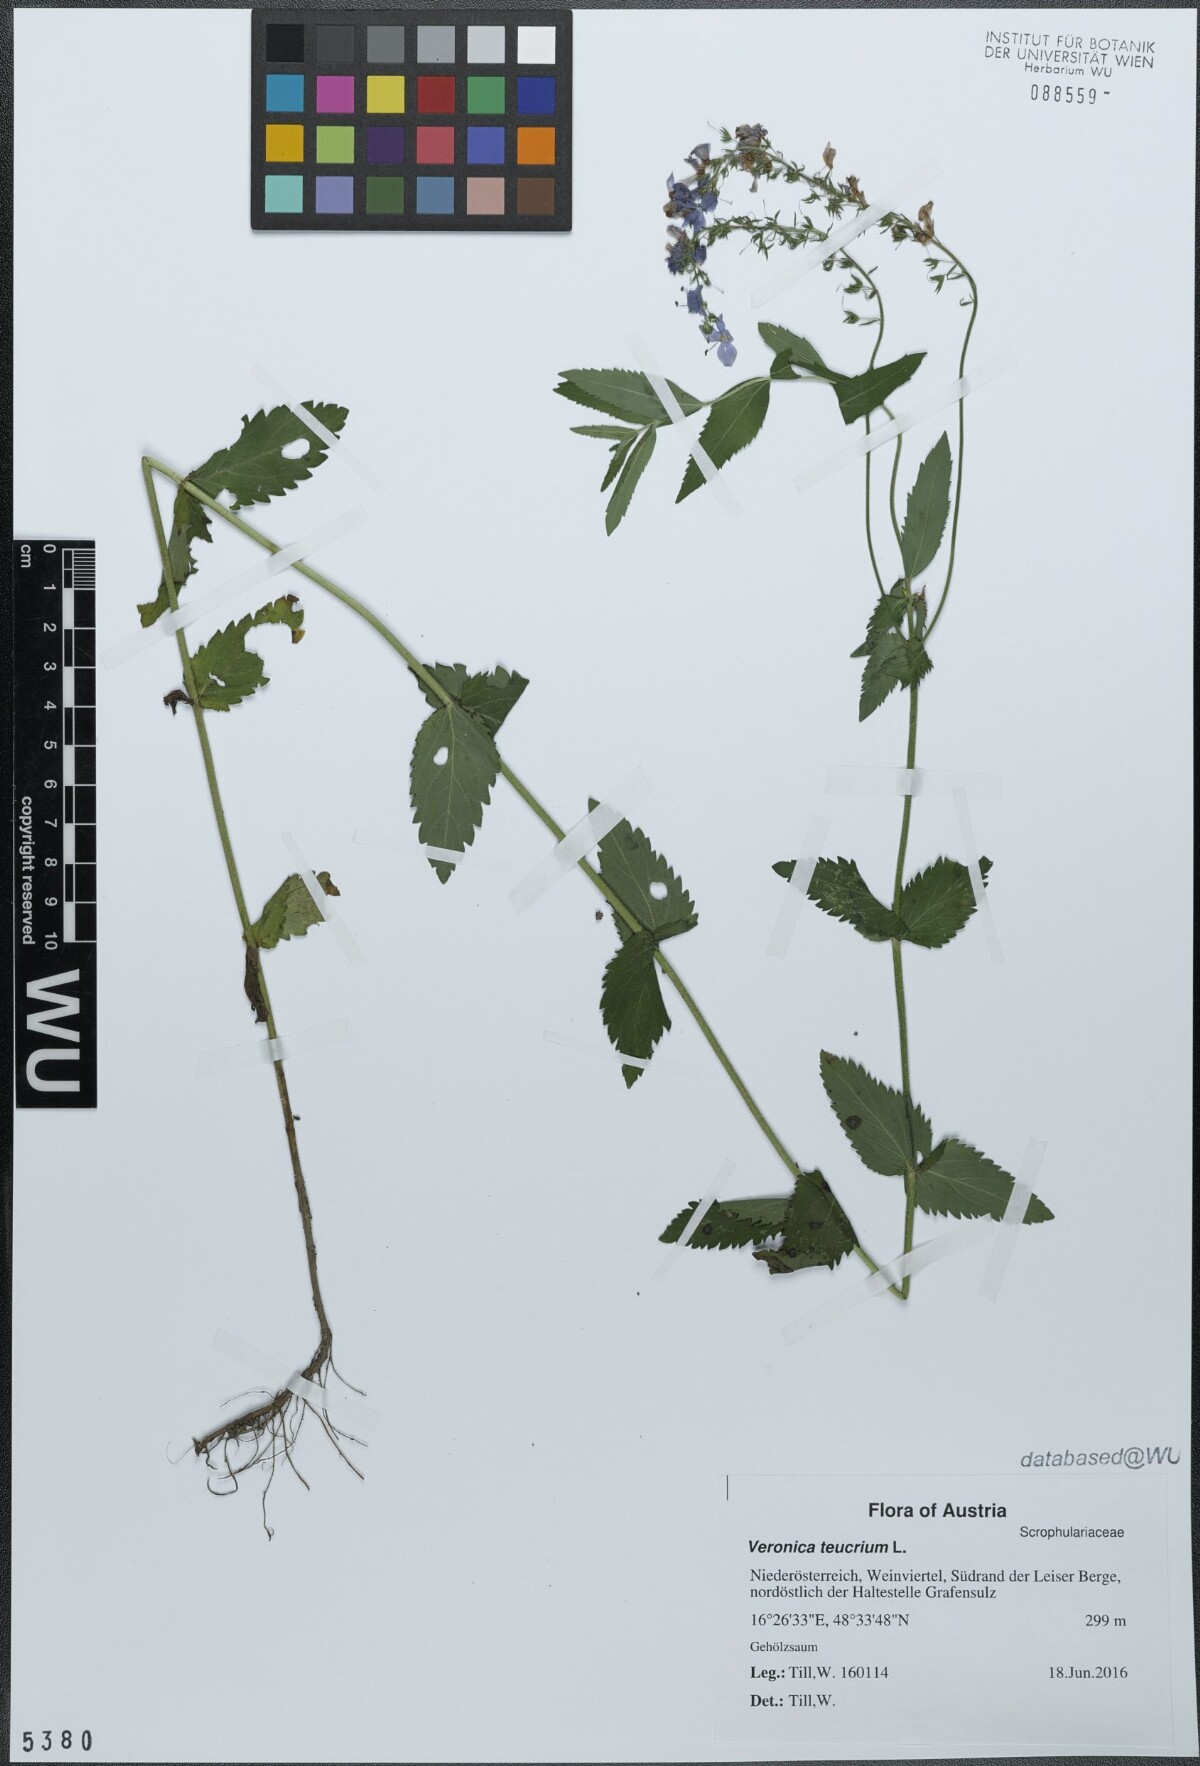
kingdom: Plantae
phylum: Tracheophyta
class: Magnoliopsida
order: Lamiales
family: Plantaginaceae
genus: Veronica
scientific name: Veronica teucrium
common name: Large speedwell
